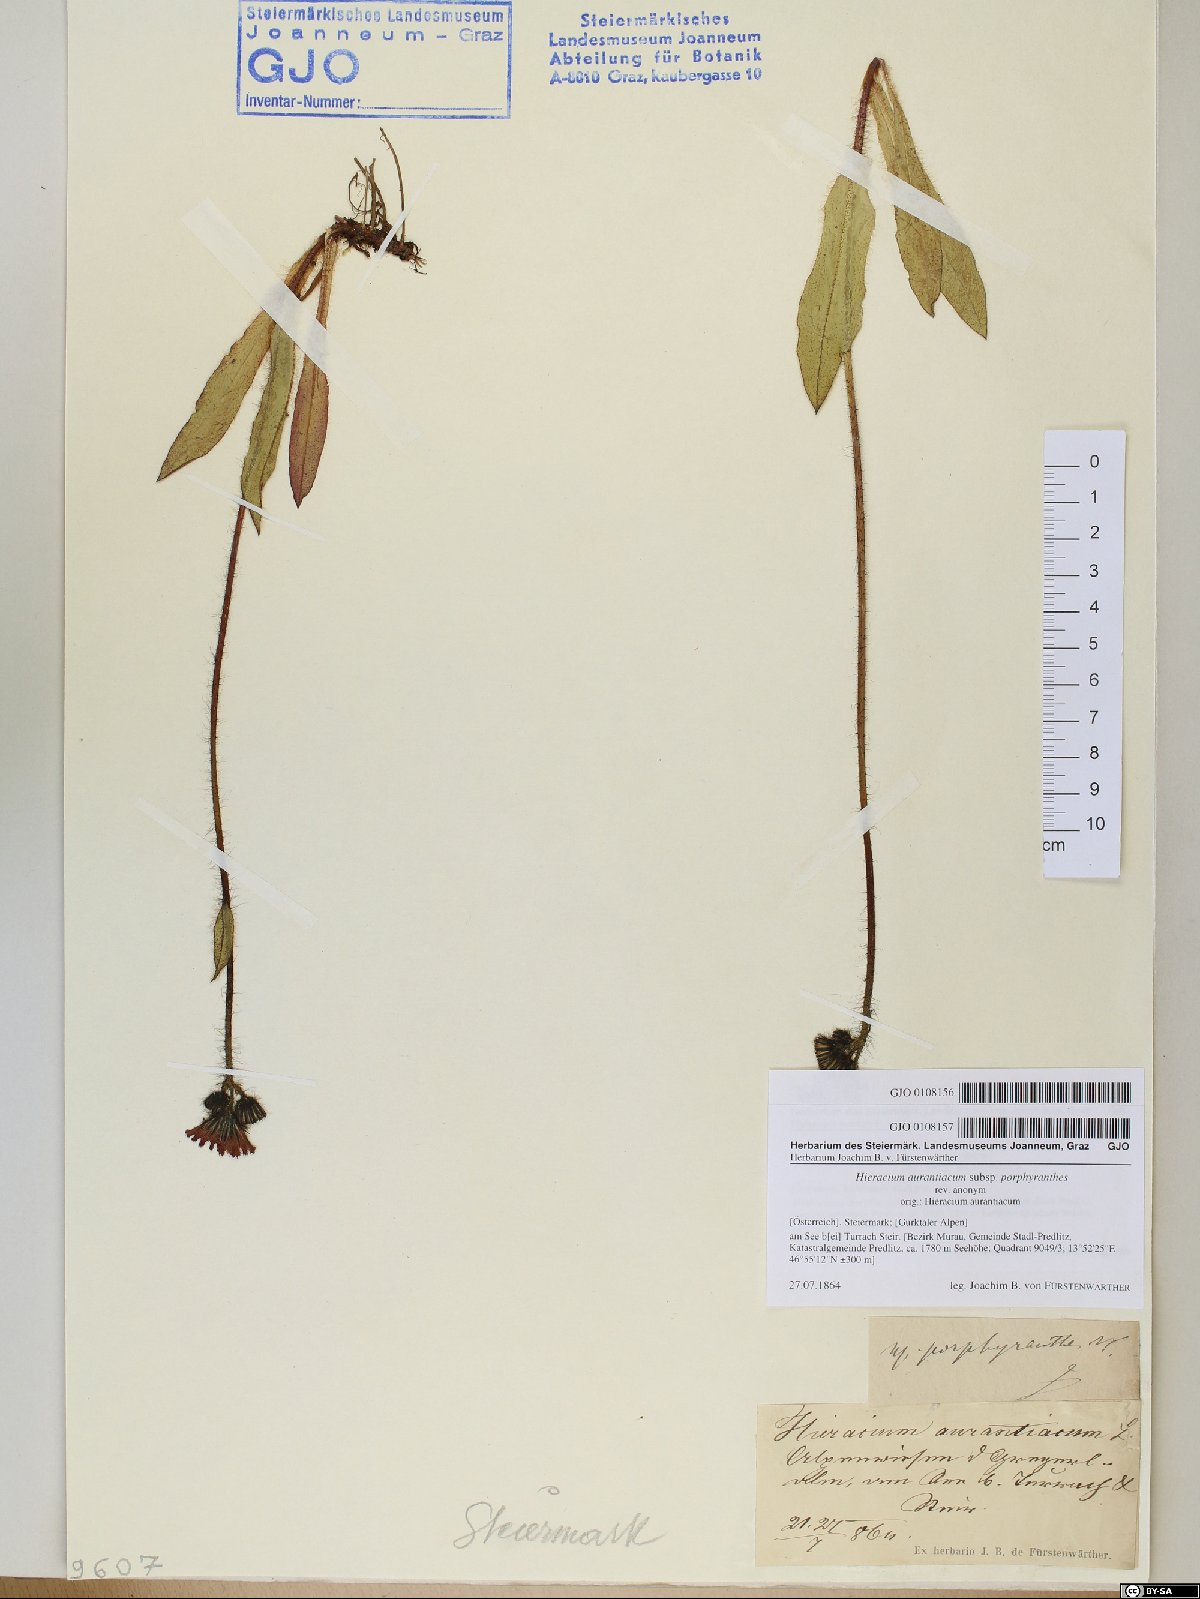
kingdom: Plantae
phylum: Tracheophyta
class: Magnoliopsida
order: Asterales
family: Asteraceae
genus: Pilosella
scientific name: Pilosella aurantiaca
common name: Fox-and-cubs
